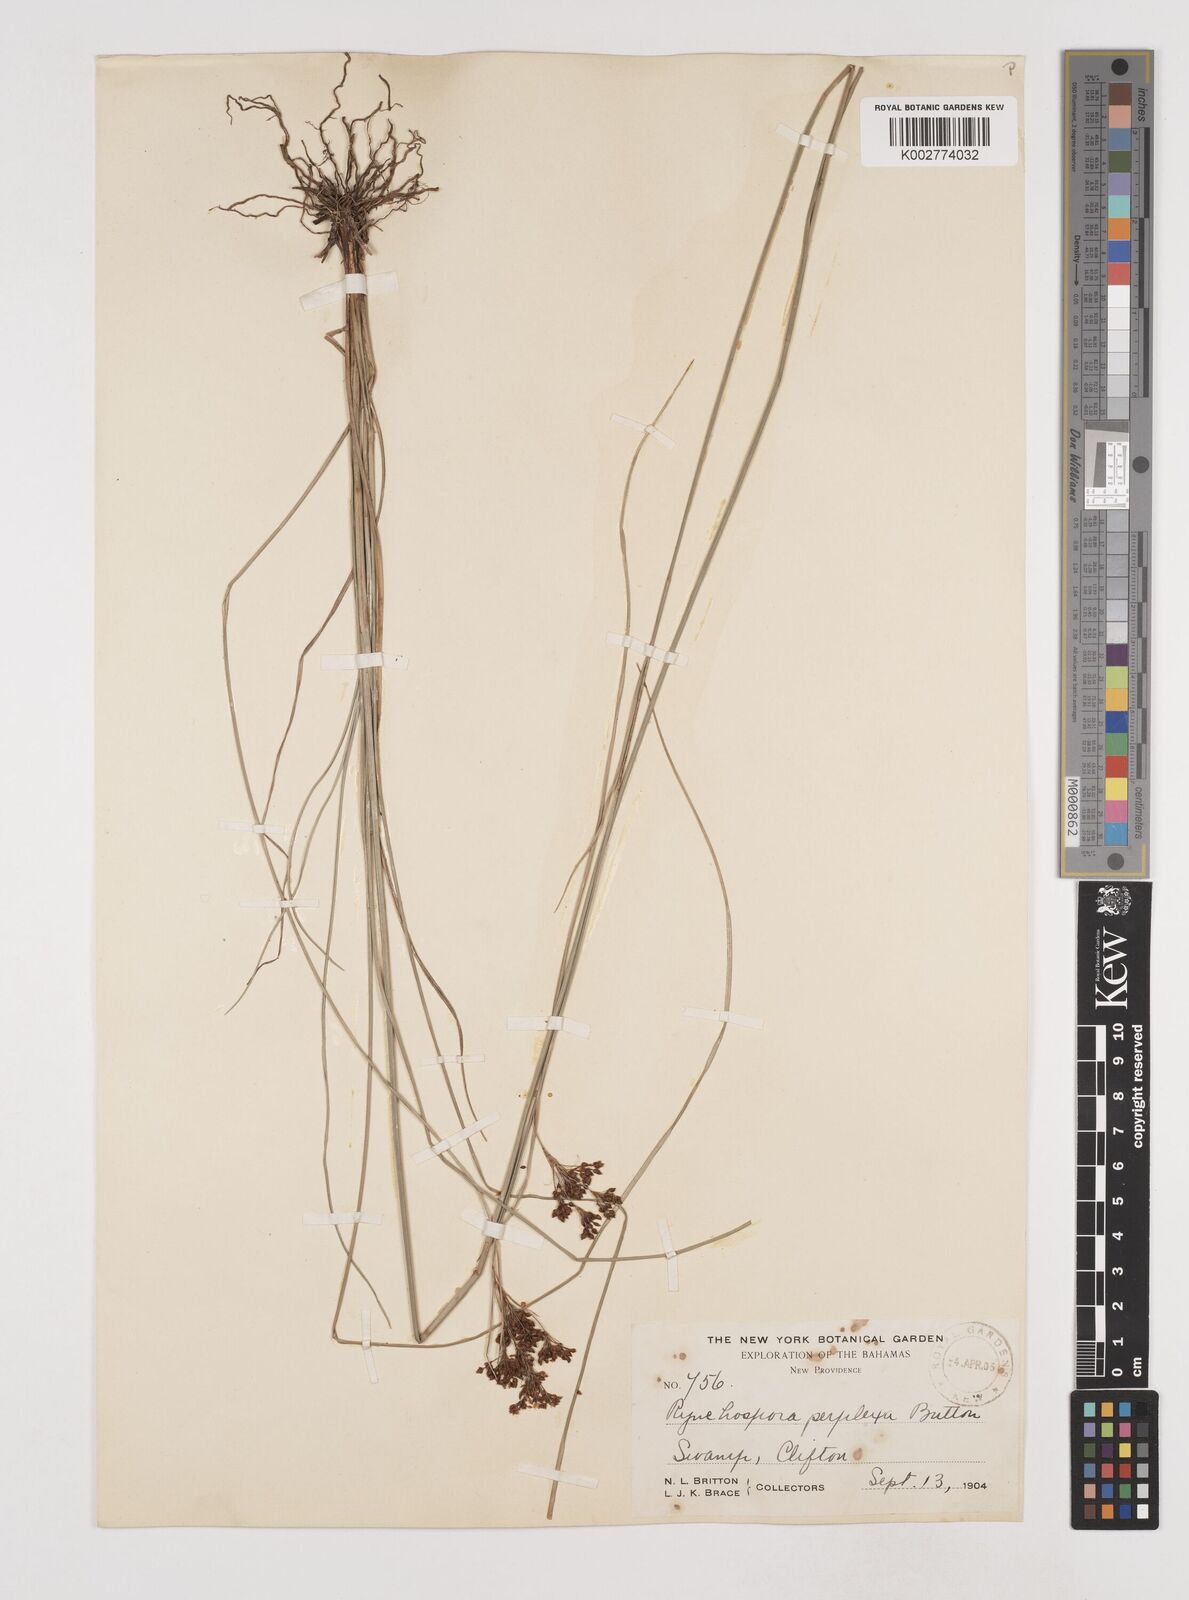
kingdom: Plantae
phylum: Tracheophyta
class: Liliopsida
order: Poales
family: Cyperaceae
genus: Rhynchospora
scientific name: Rhynchospora perplexa
